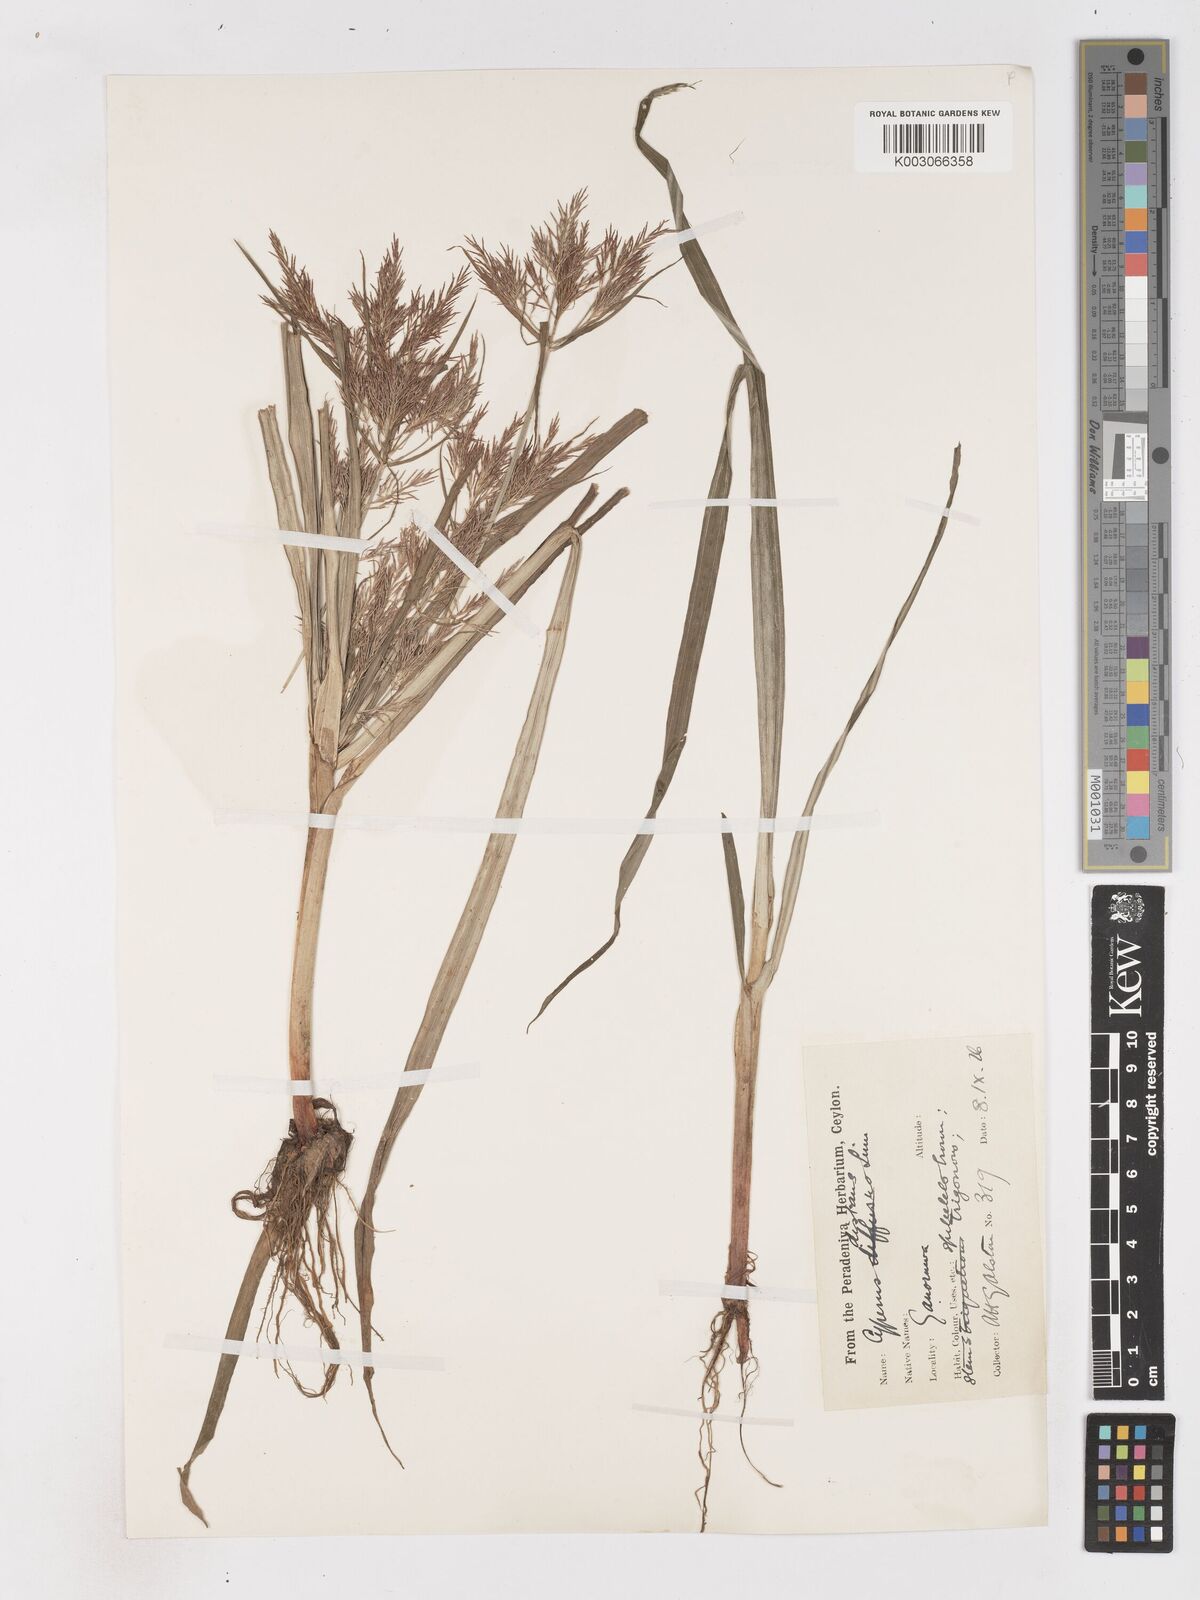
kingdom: Plantae
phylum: Tracheophyta
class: Liliopsida
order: Poales
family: Cyperaceae
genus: Cyperus
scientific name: Cyperus distans
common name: Slender cyperus
